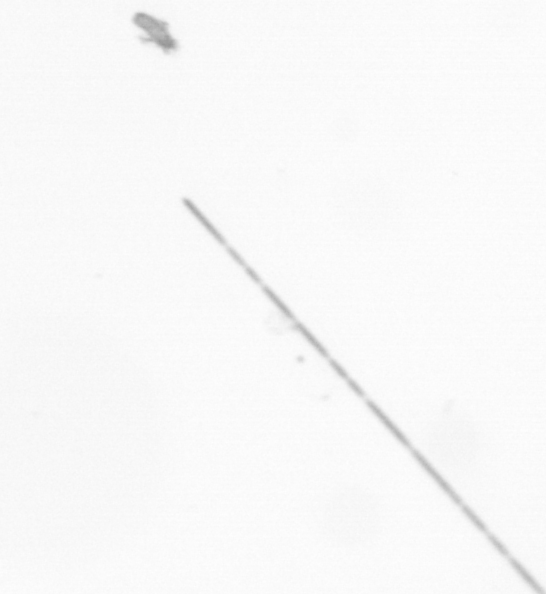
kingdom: Chromista
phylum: Ochrophyta
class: Bacillariophyceae
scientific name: Bacillariophyceae
